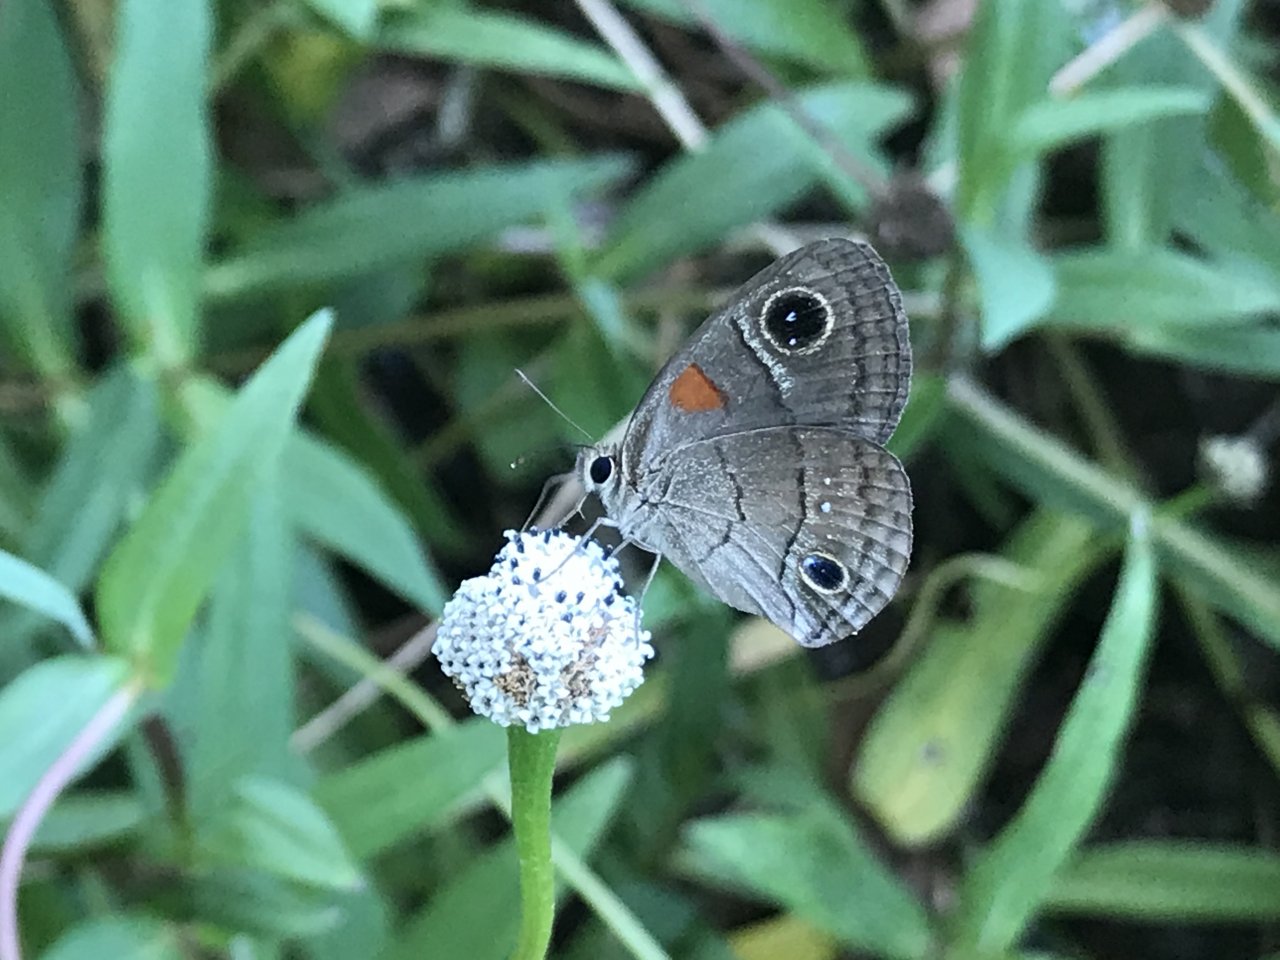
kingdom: Animalia
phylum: Arthropoda
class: Insecta
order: Lepidoptera
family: Nymphalidae
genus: Calisto
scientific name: Calisto herophile
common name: Cuban Calisto
